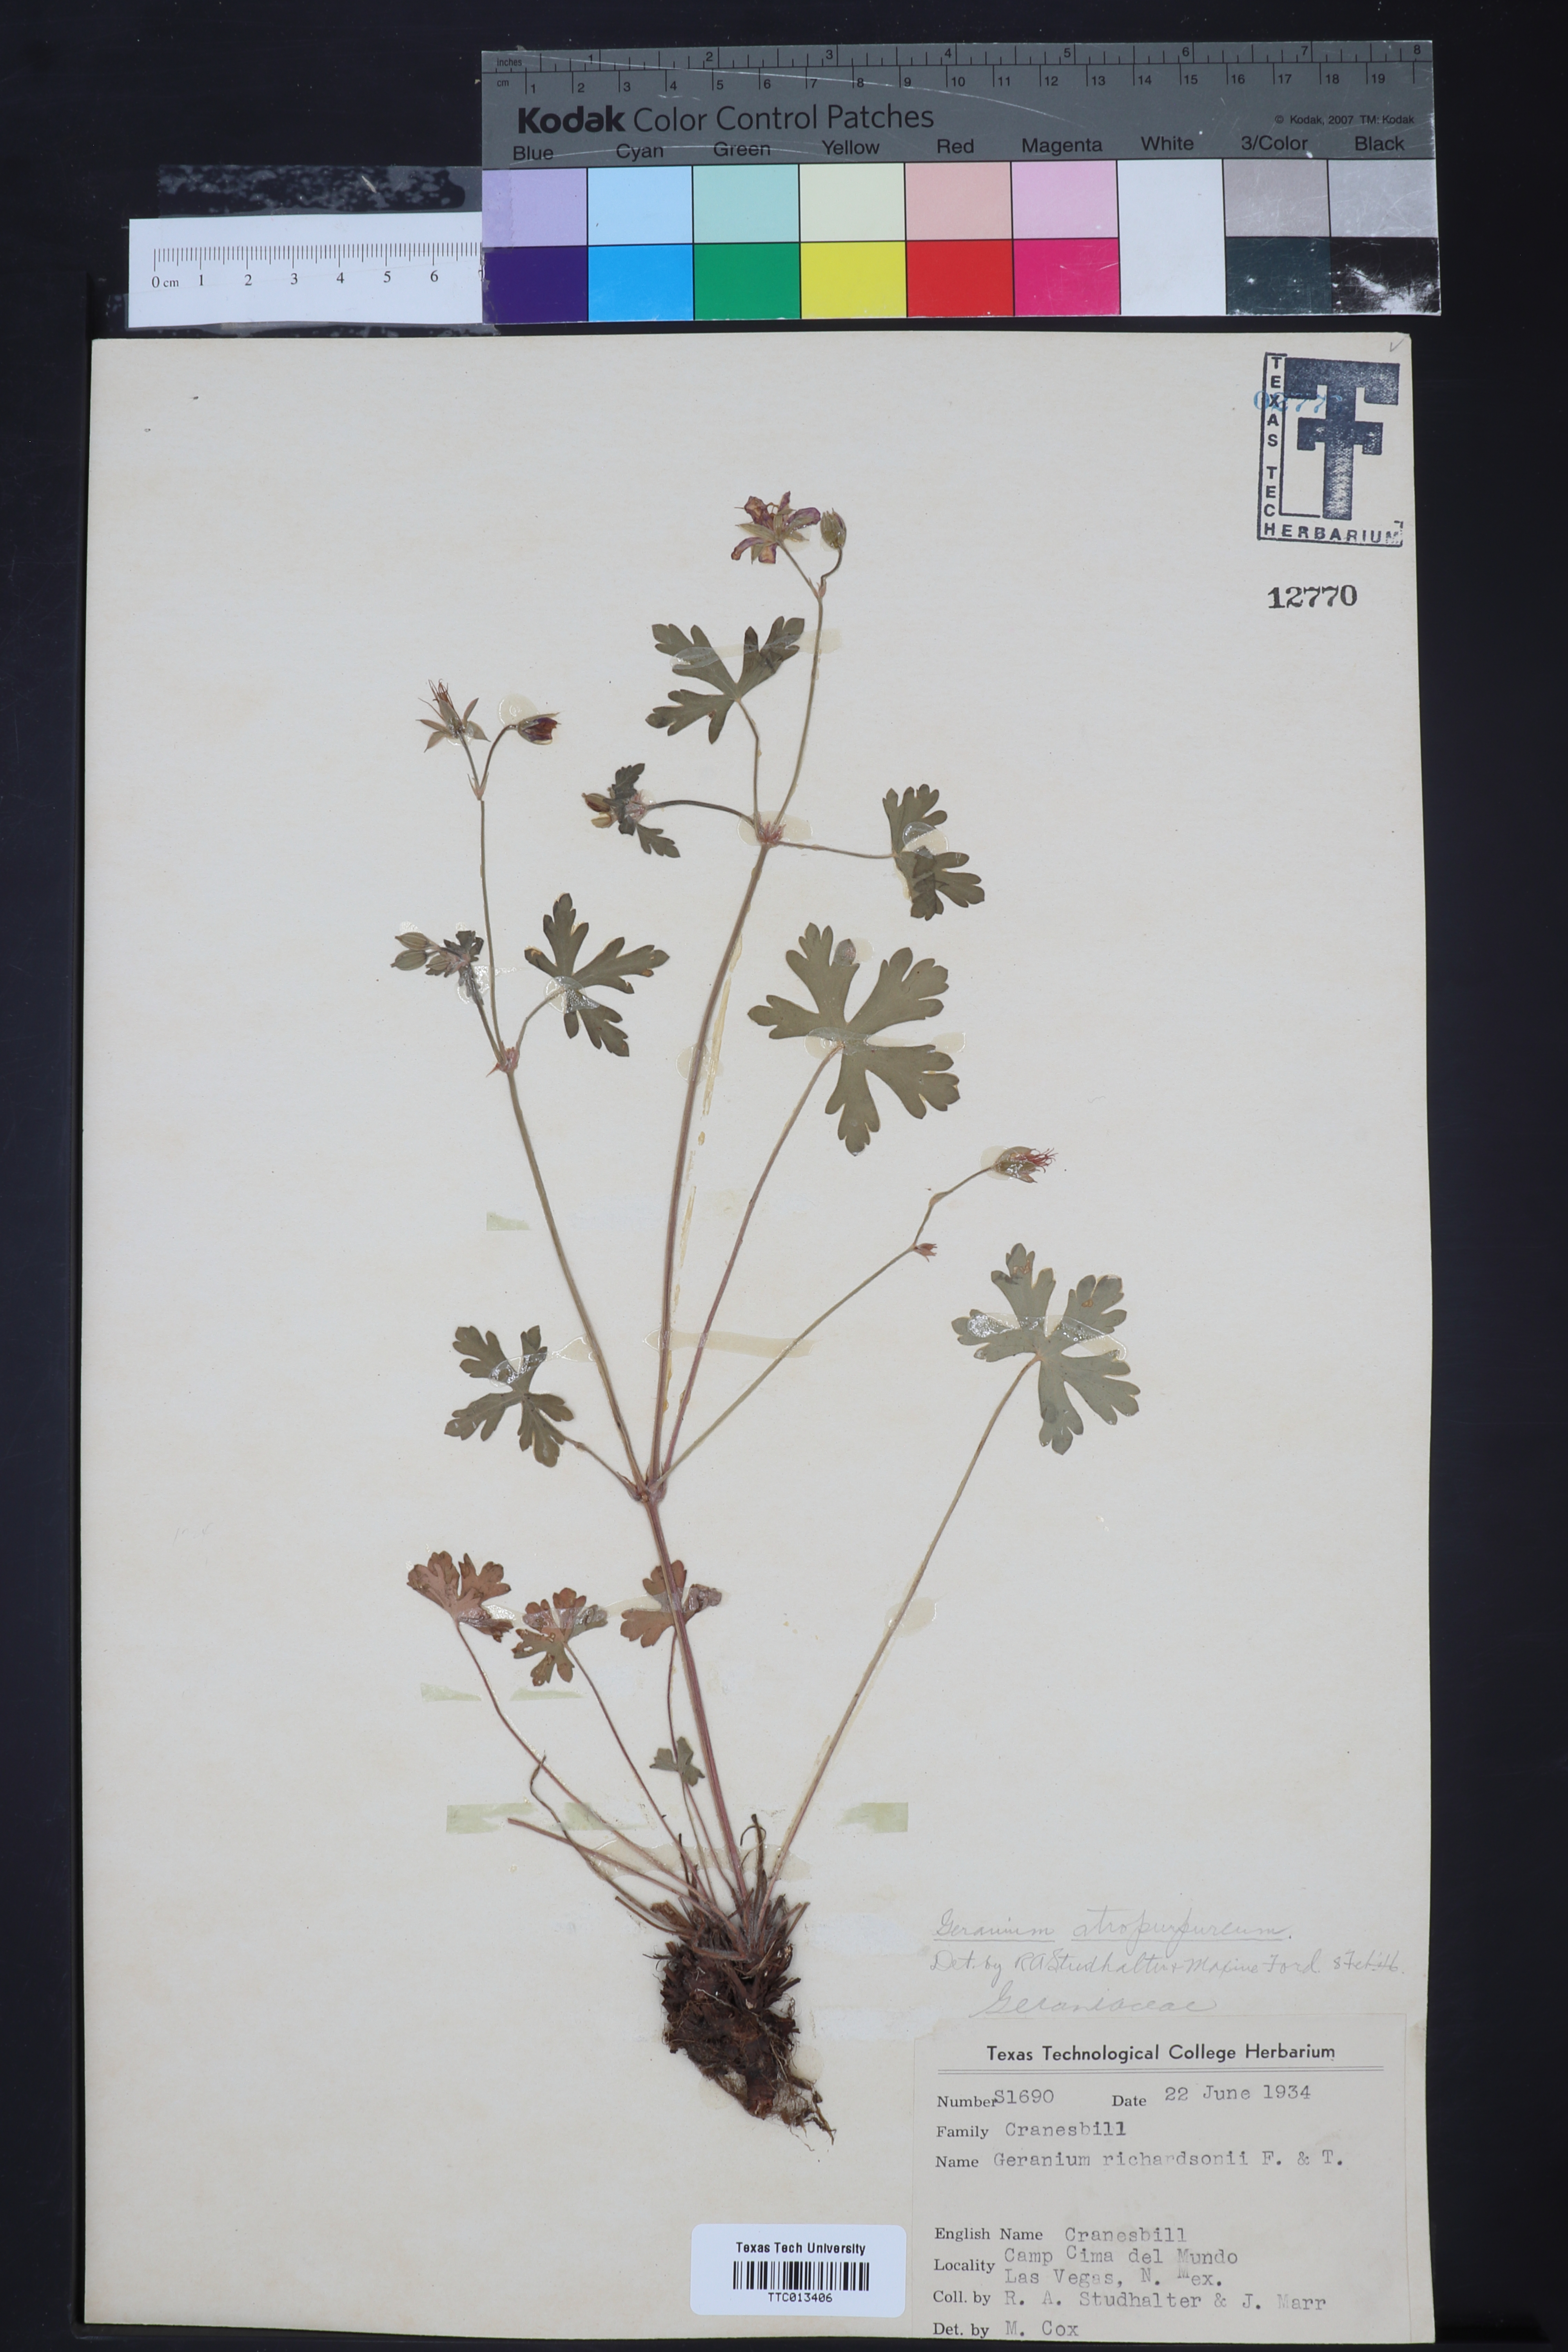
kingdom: Plantae
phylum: Tracheophyta
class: Magnoliopsida
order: Geraniales
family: Geraniaceae
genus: Geranium
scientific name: Geranium richardsonii
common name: Richardson's crane's-bill
